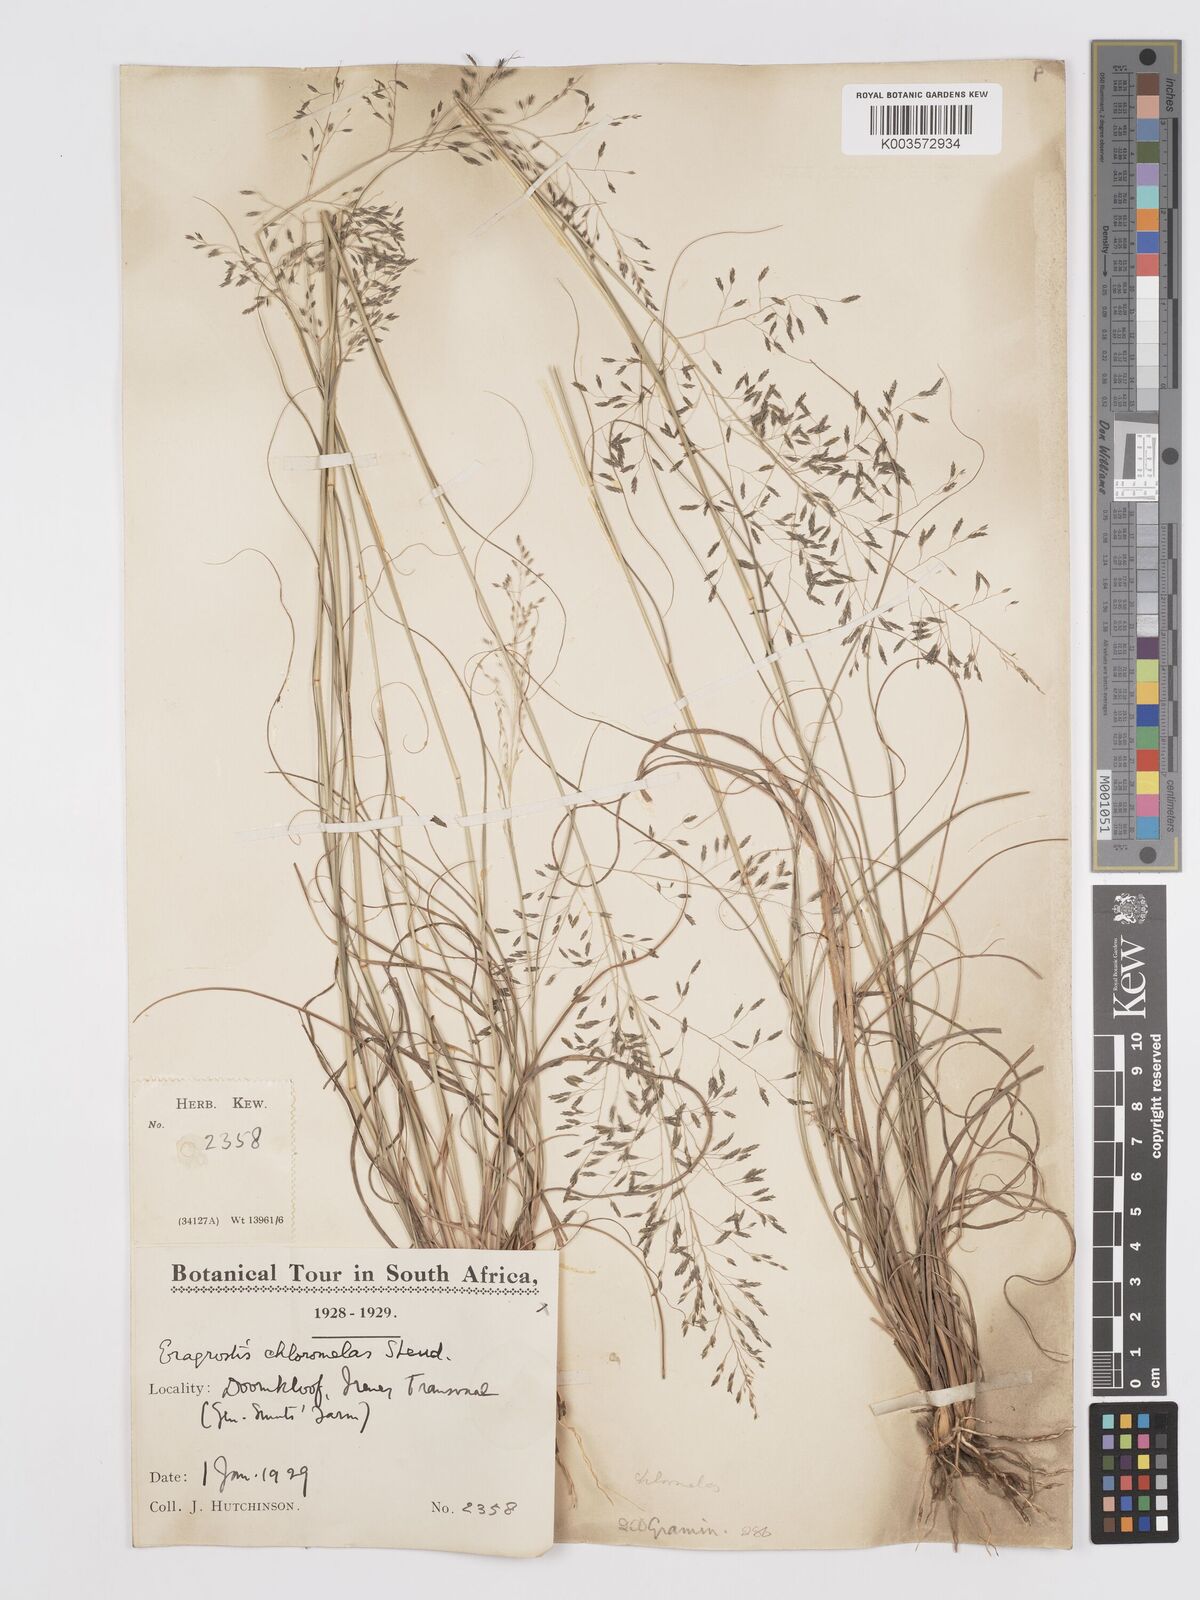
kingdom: Plantae
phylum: Tracheophyta
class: Liliopsida
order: Poales
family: Poaceae
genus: Eragrostis
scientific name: Eragrostis curvula
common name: African love-grass
